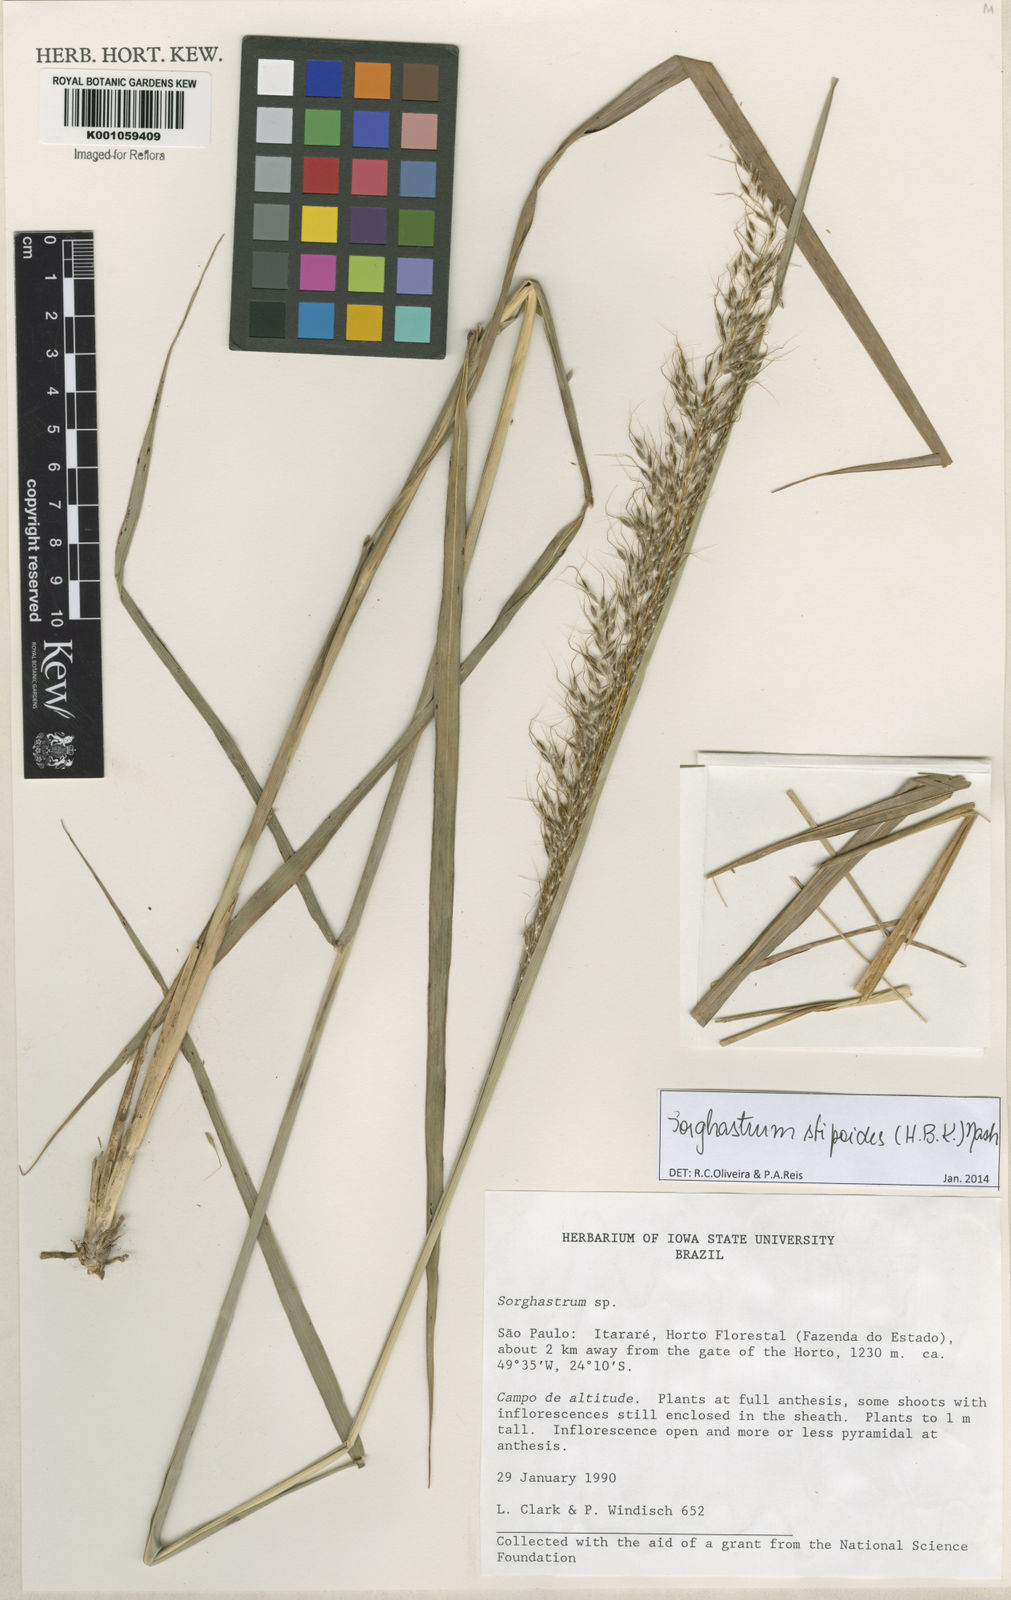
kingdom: Plantae
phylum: Tracheophyta
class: Liliopsida
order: Poales
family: Poaceae
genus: Sorghastrum
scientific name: Sorghastrum stipoides
